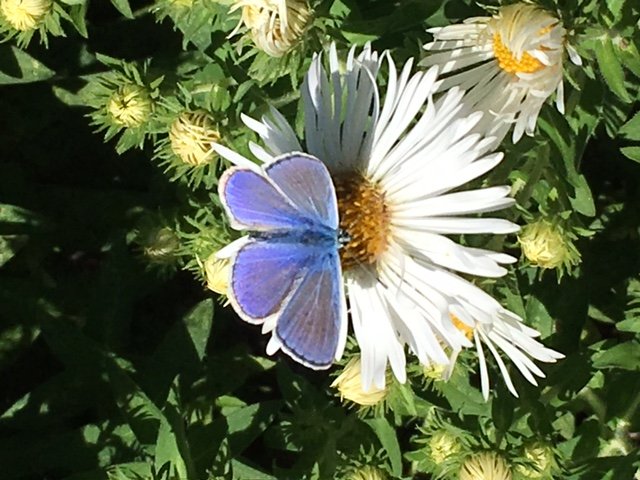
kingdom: Animalia
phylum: Arthropoda
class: Insecta
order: Lepidoptera
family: Lycaenidae
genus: Polyommatus
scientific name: Polyommatus icarus
